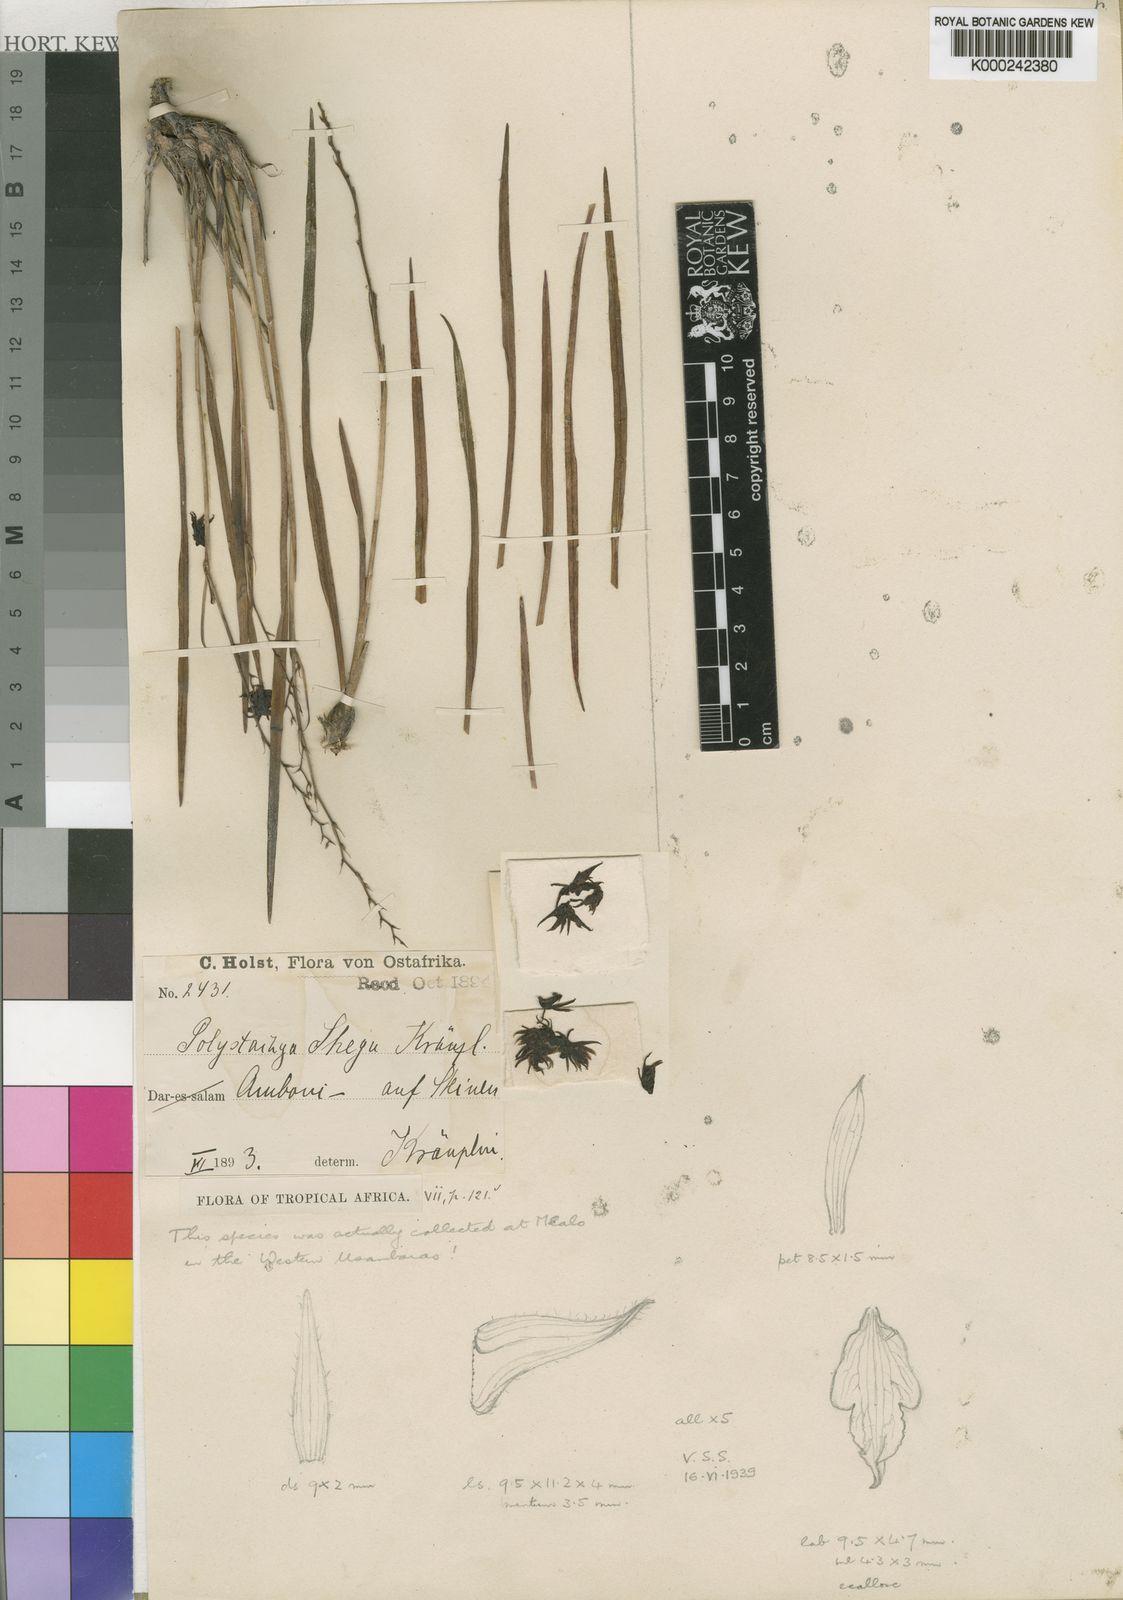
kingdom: Plantae
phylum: Tracheophyta
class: Liliopsida
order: Asparagales
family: Orchidaceae
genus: Polystachya
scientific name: Polystachya shega
